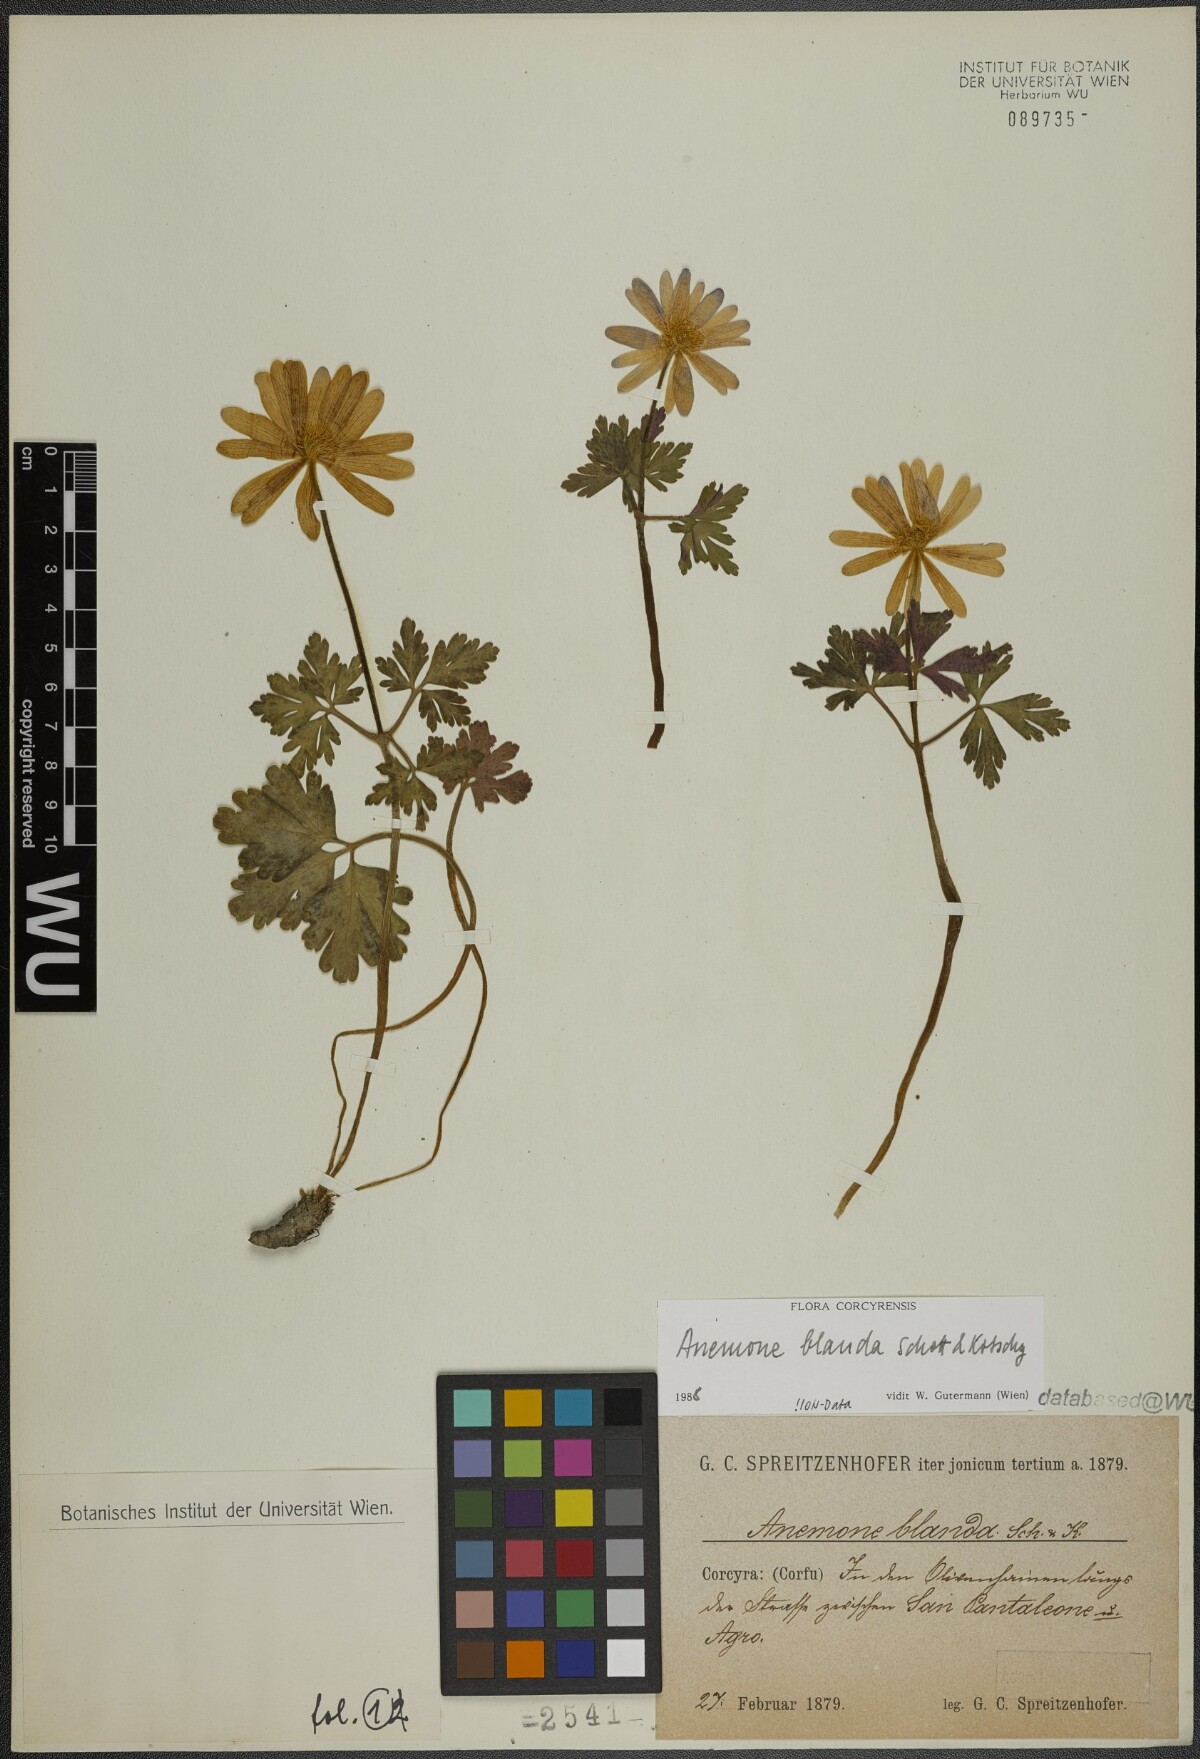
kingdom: Plantae
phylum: Tracheophyta
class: Magnoliopsida
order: Ranunculales
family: Ranunculaceae
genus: Anemone
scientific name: Anemone blanda
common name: Balkan anemone
